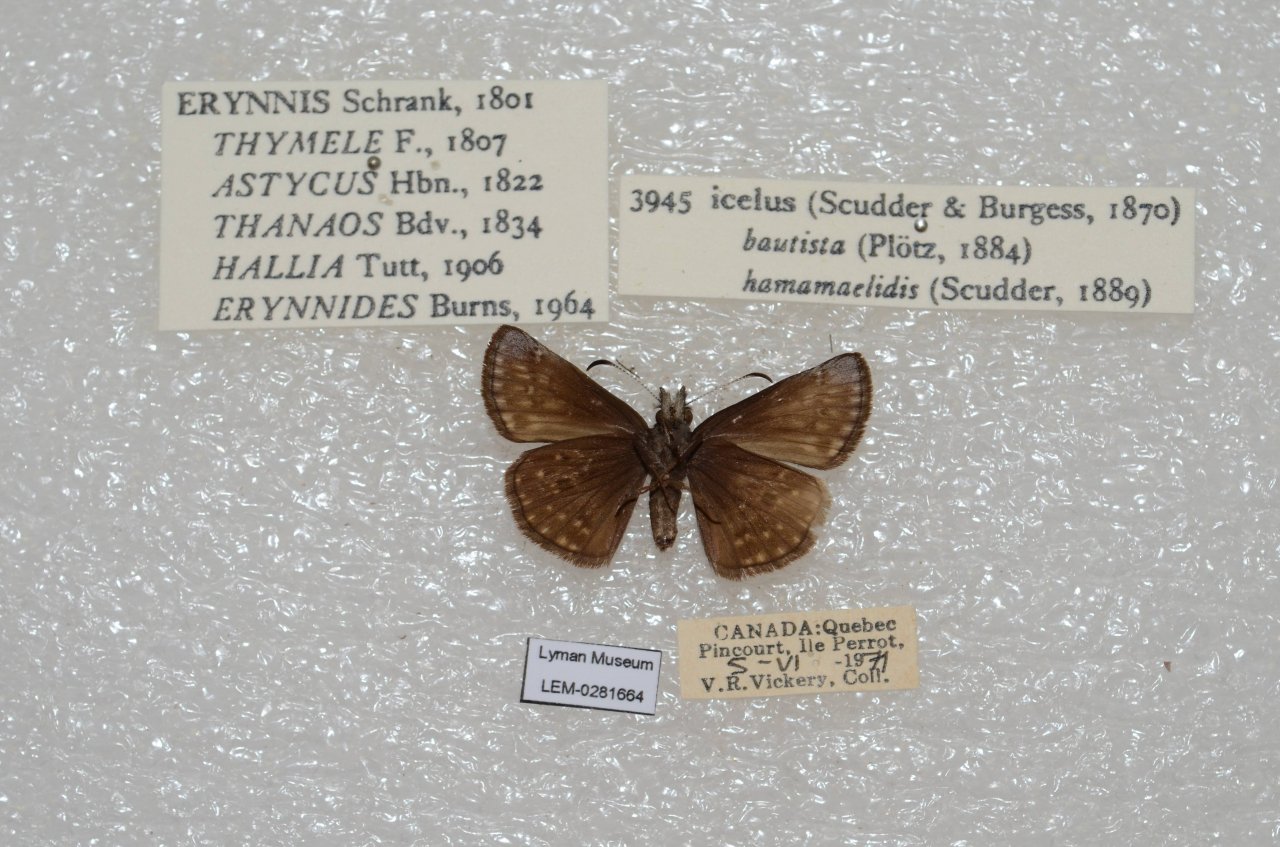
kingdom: Animalia
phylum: Arthropoda
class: Insecta
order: Lepidoptera
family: Hesperiidae
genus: Erynnis
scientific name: Erynnis icelus
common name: Dreamy Duskywing
